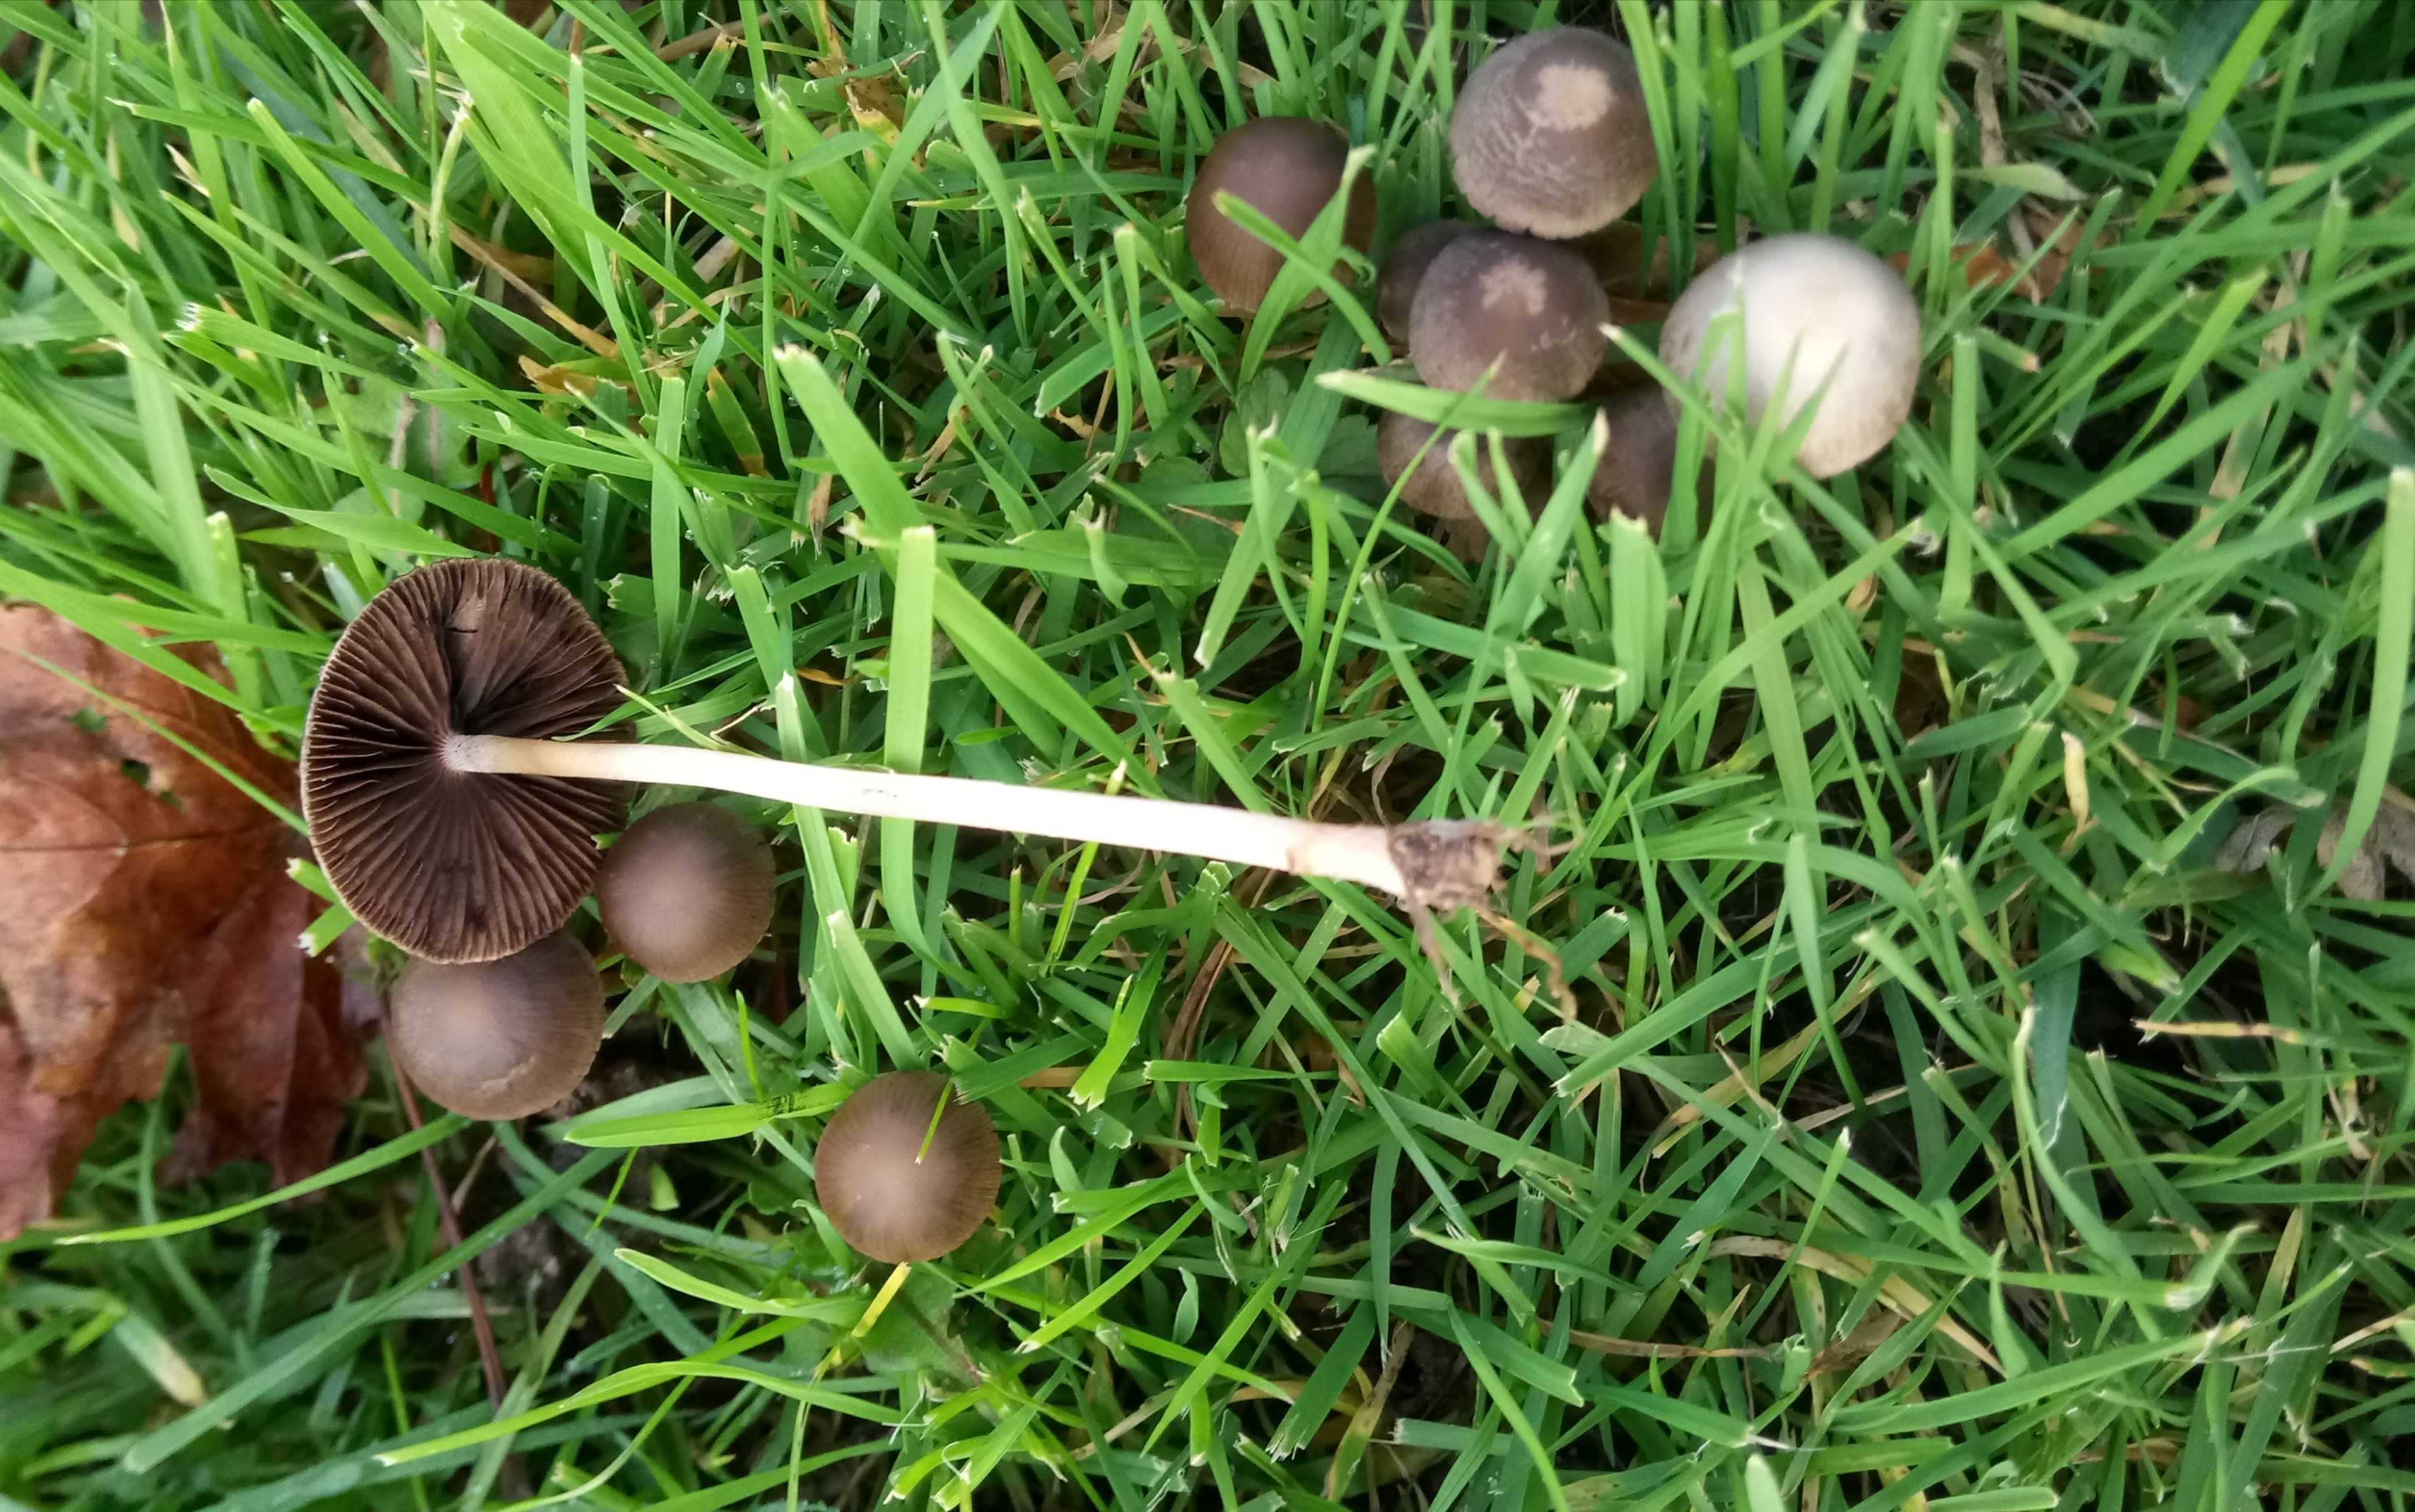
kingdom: Fungi
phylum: Basidiomycota
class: Agaricomycetes
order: Agaricales
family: Bolbitiaceae
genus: Panaeolina
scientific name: Panaeolina foenisecii
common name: høslætsvamp
